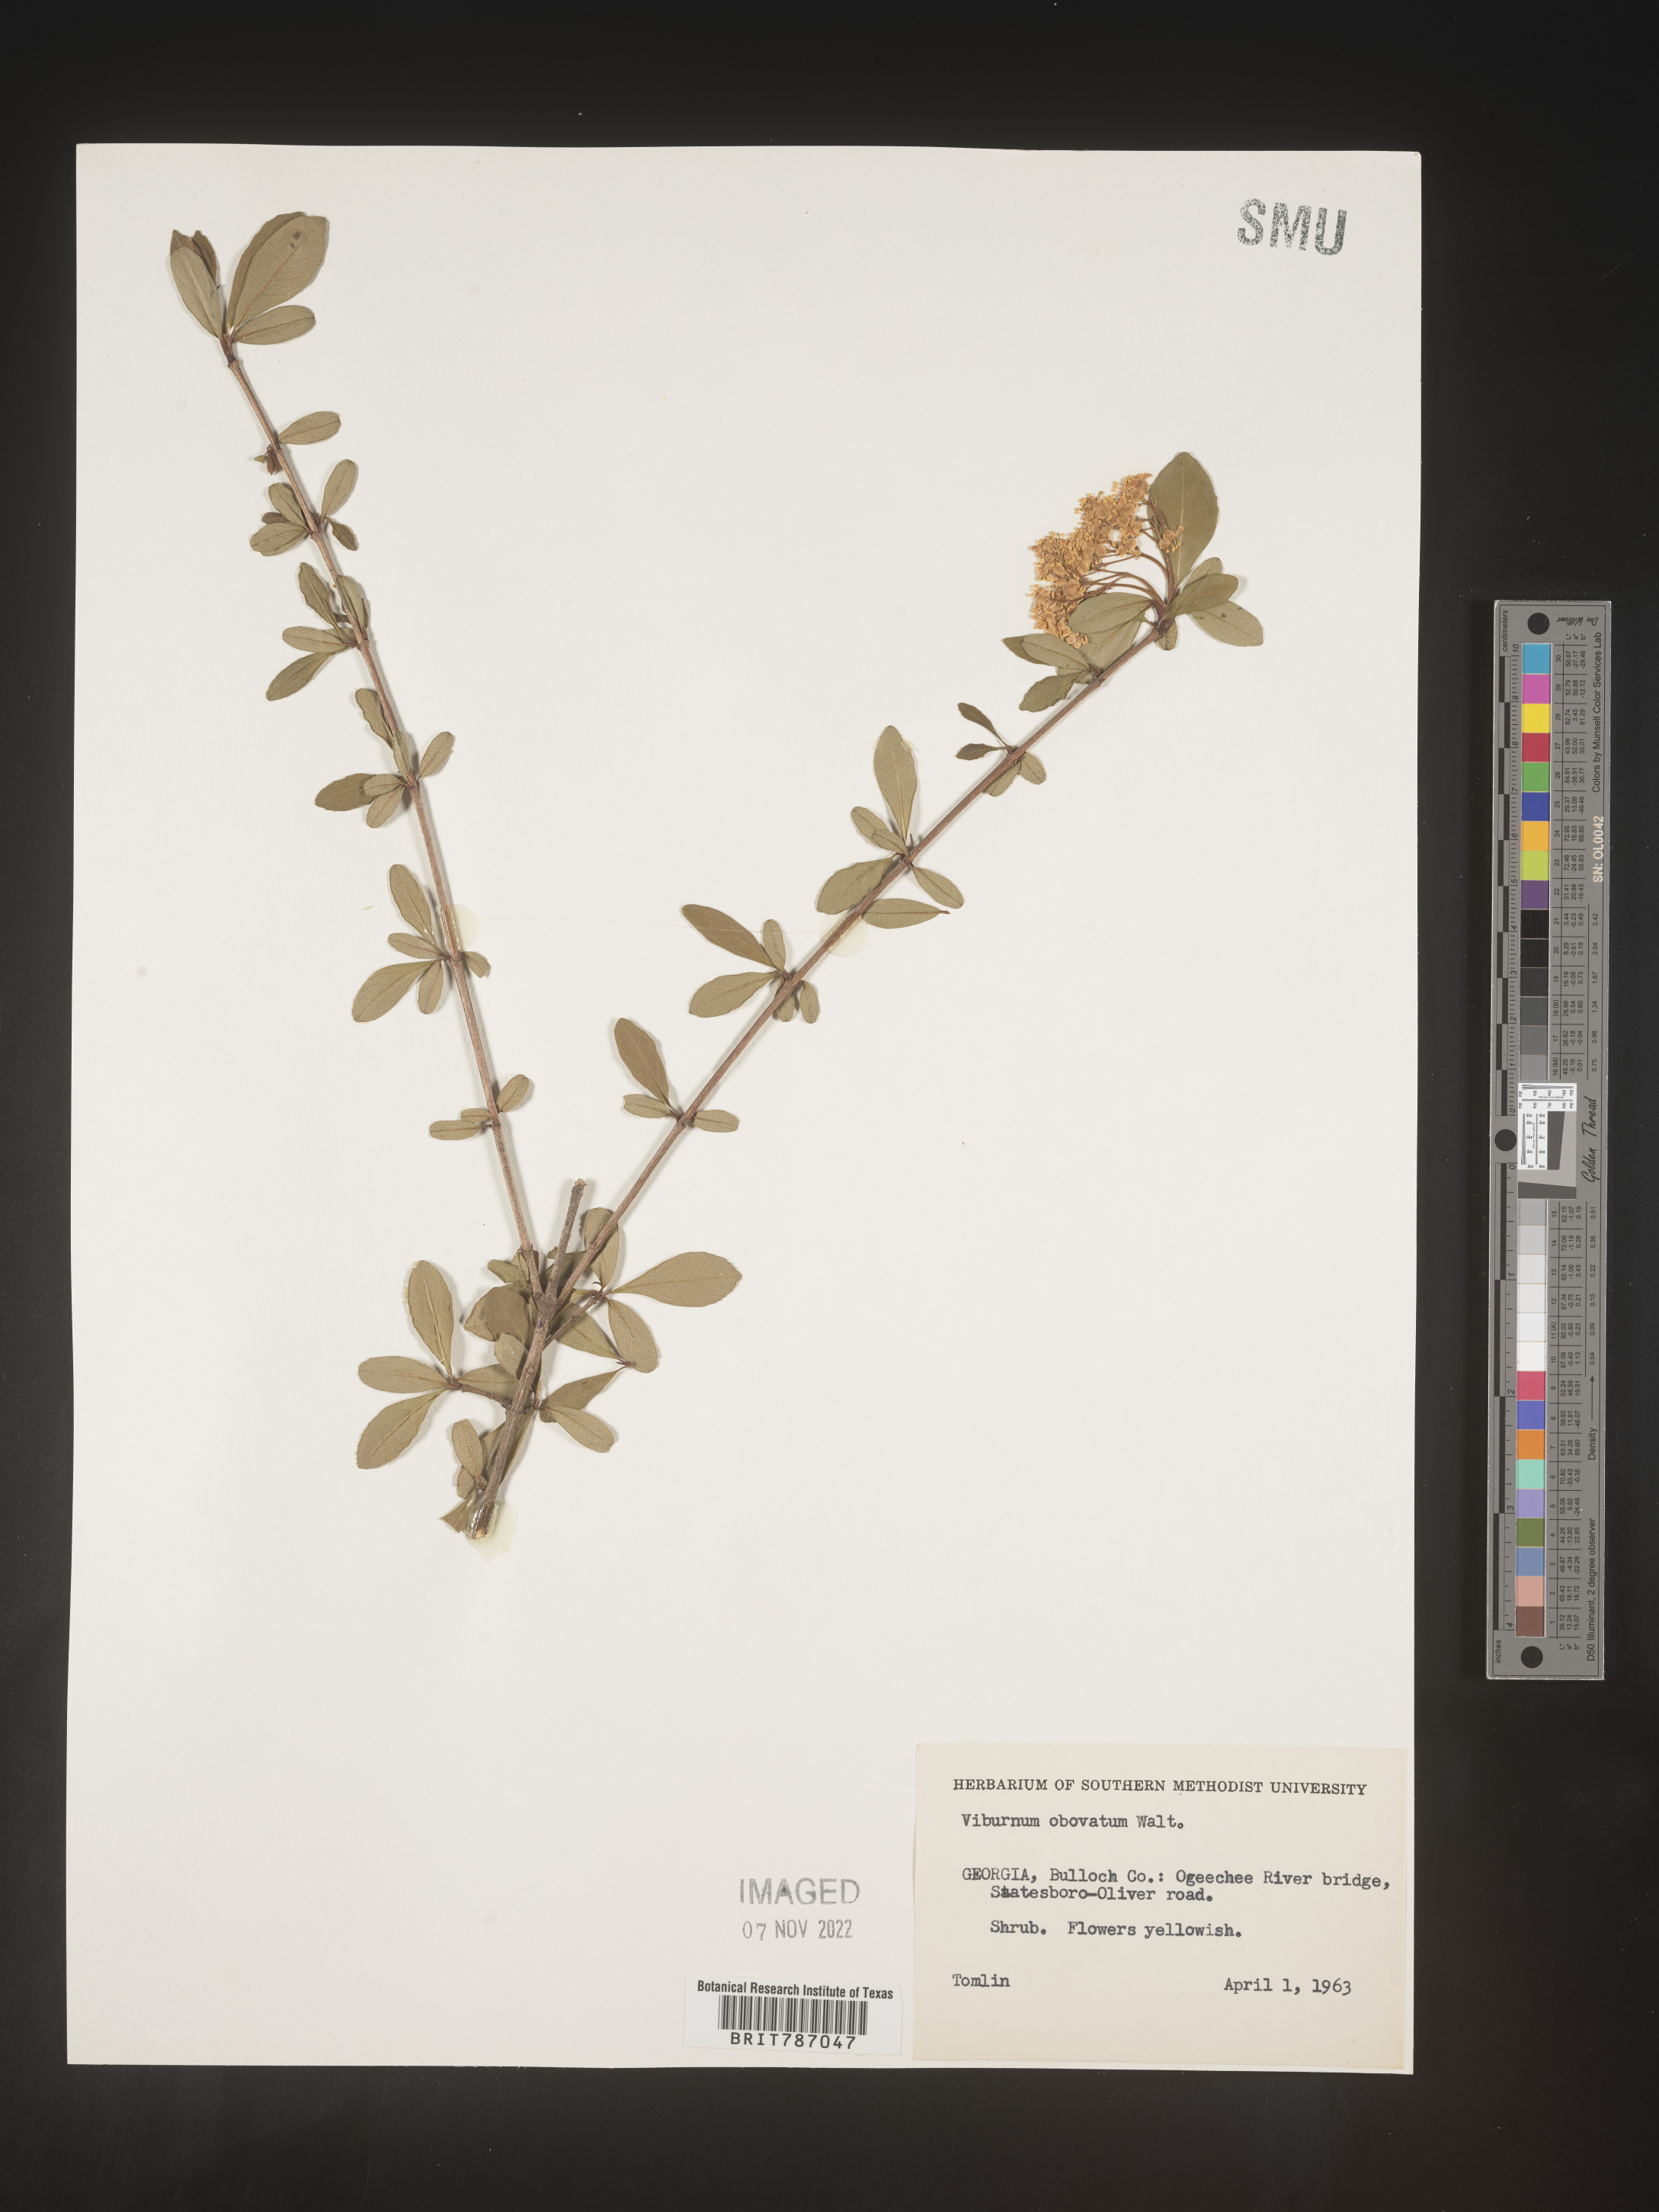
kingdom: Plantae
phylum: Tracheophyta
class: Magnoliopsida
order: Dipsacales
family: Viburnaceae
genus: Viburnum
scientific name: Viburnum obovatum
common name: Walter's viburnum
